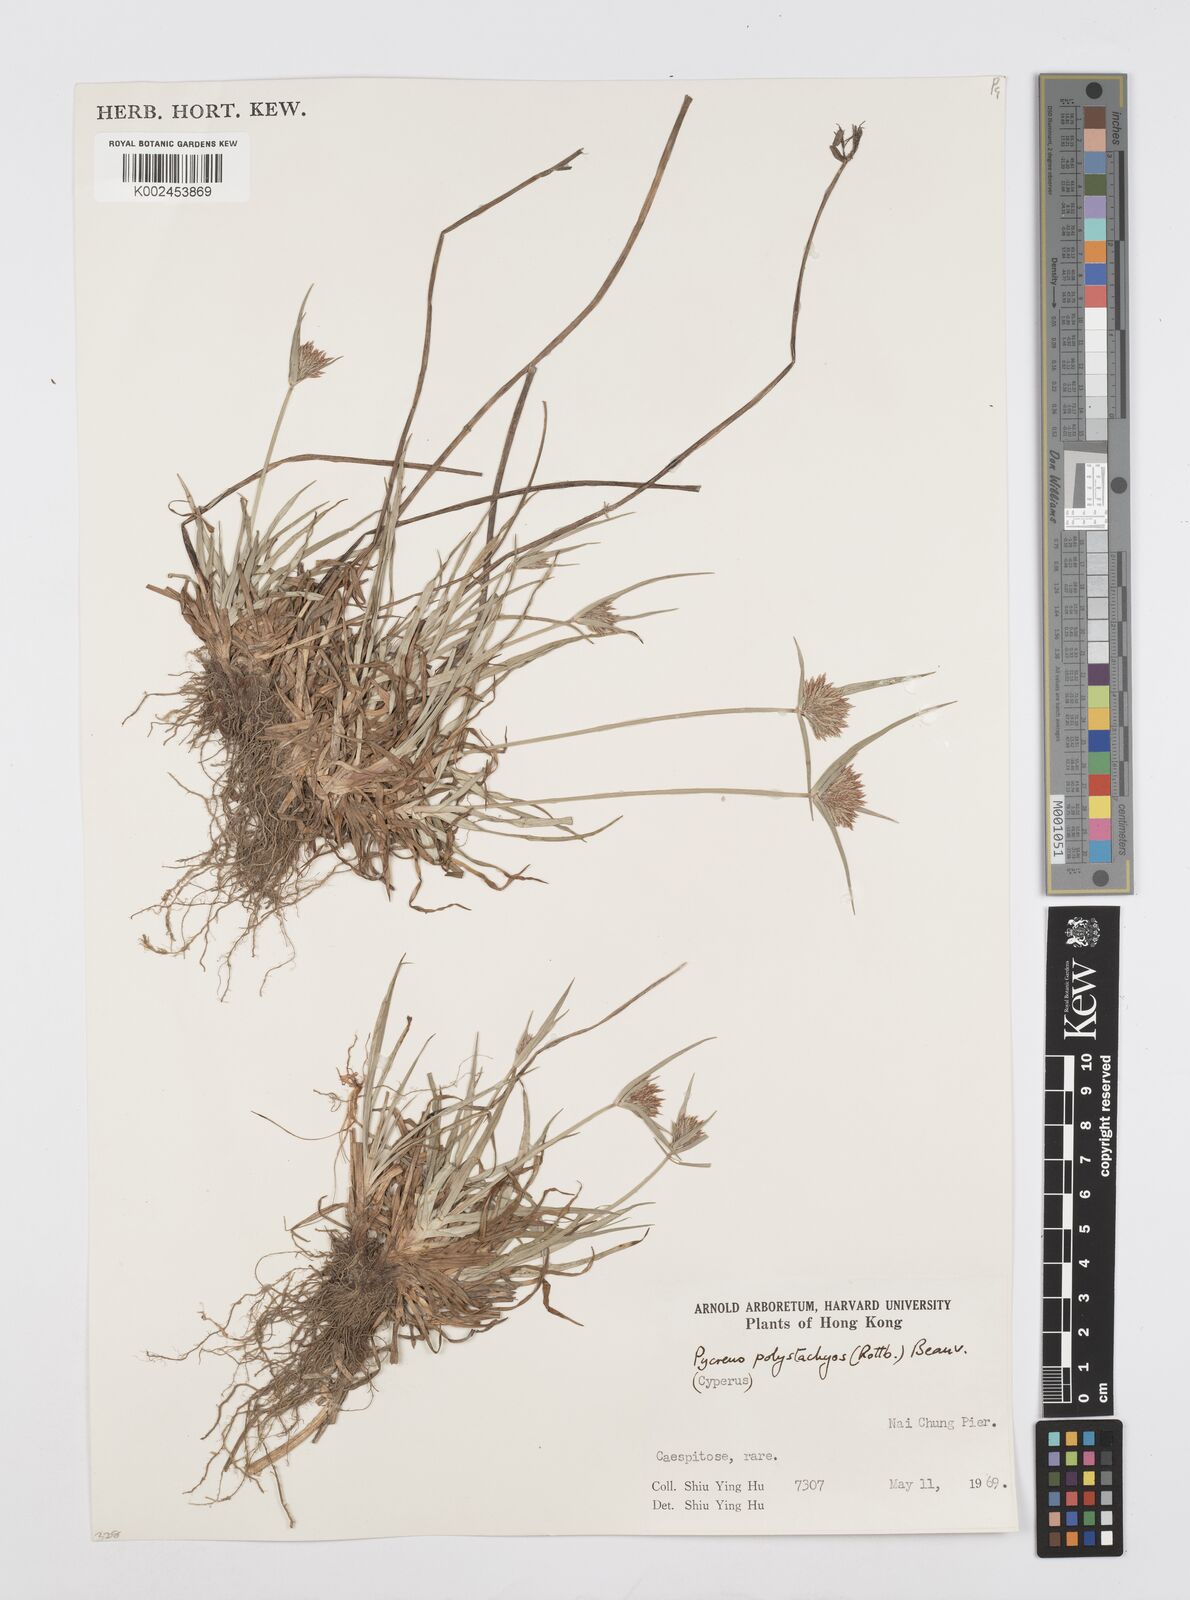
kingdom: Plantae
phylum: Tracheophyta
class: Liliopsida
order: Poales
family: Cyperaceae
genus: Cyperus
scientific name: Cyperus polystachyos
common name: Bunchy flat sedge
